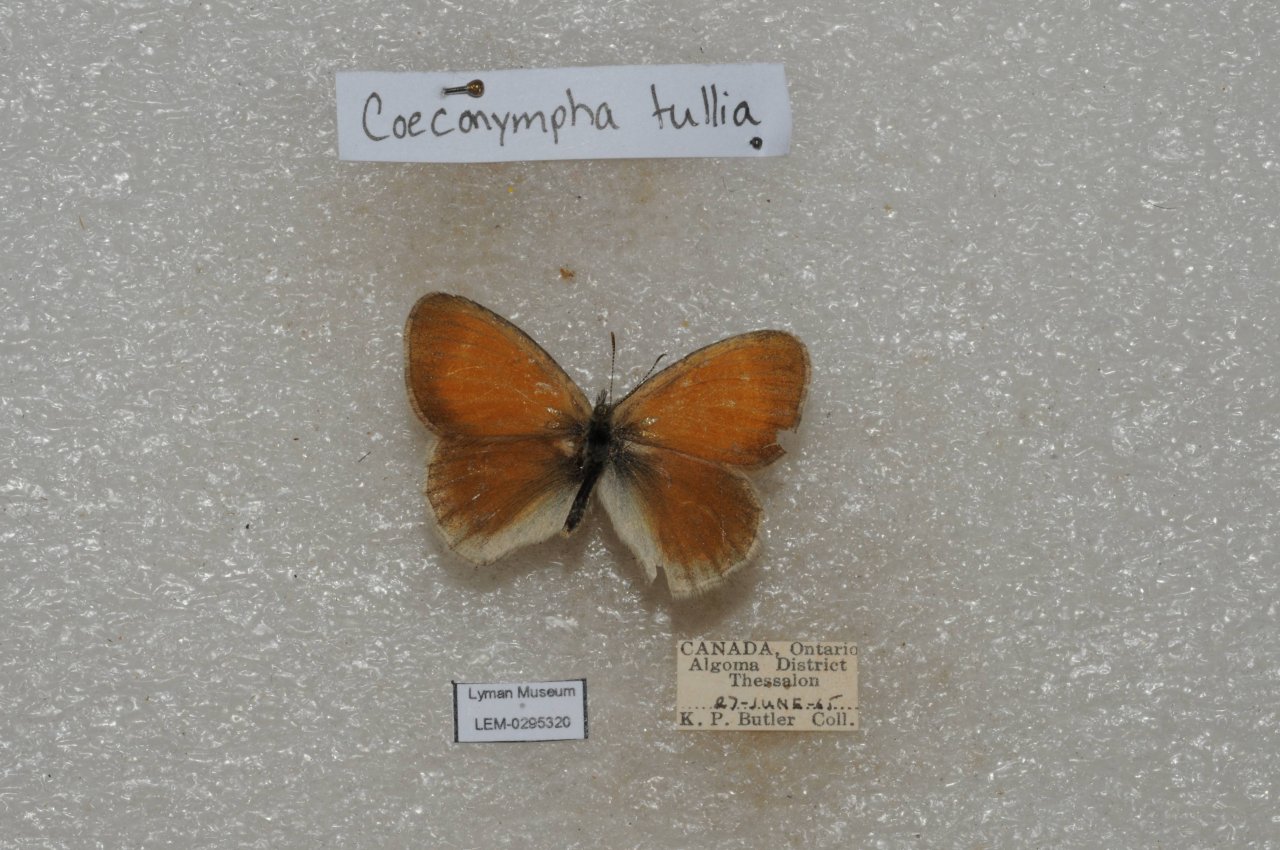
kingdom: Animalia
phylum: Arthropoda
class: Insecta
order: Lepidoptera
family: Nymphalidae
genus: Coenonympha
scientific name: Coenonympha tullia
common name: Large Heath
